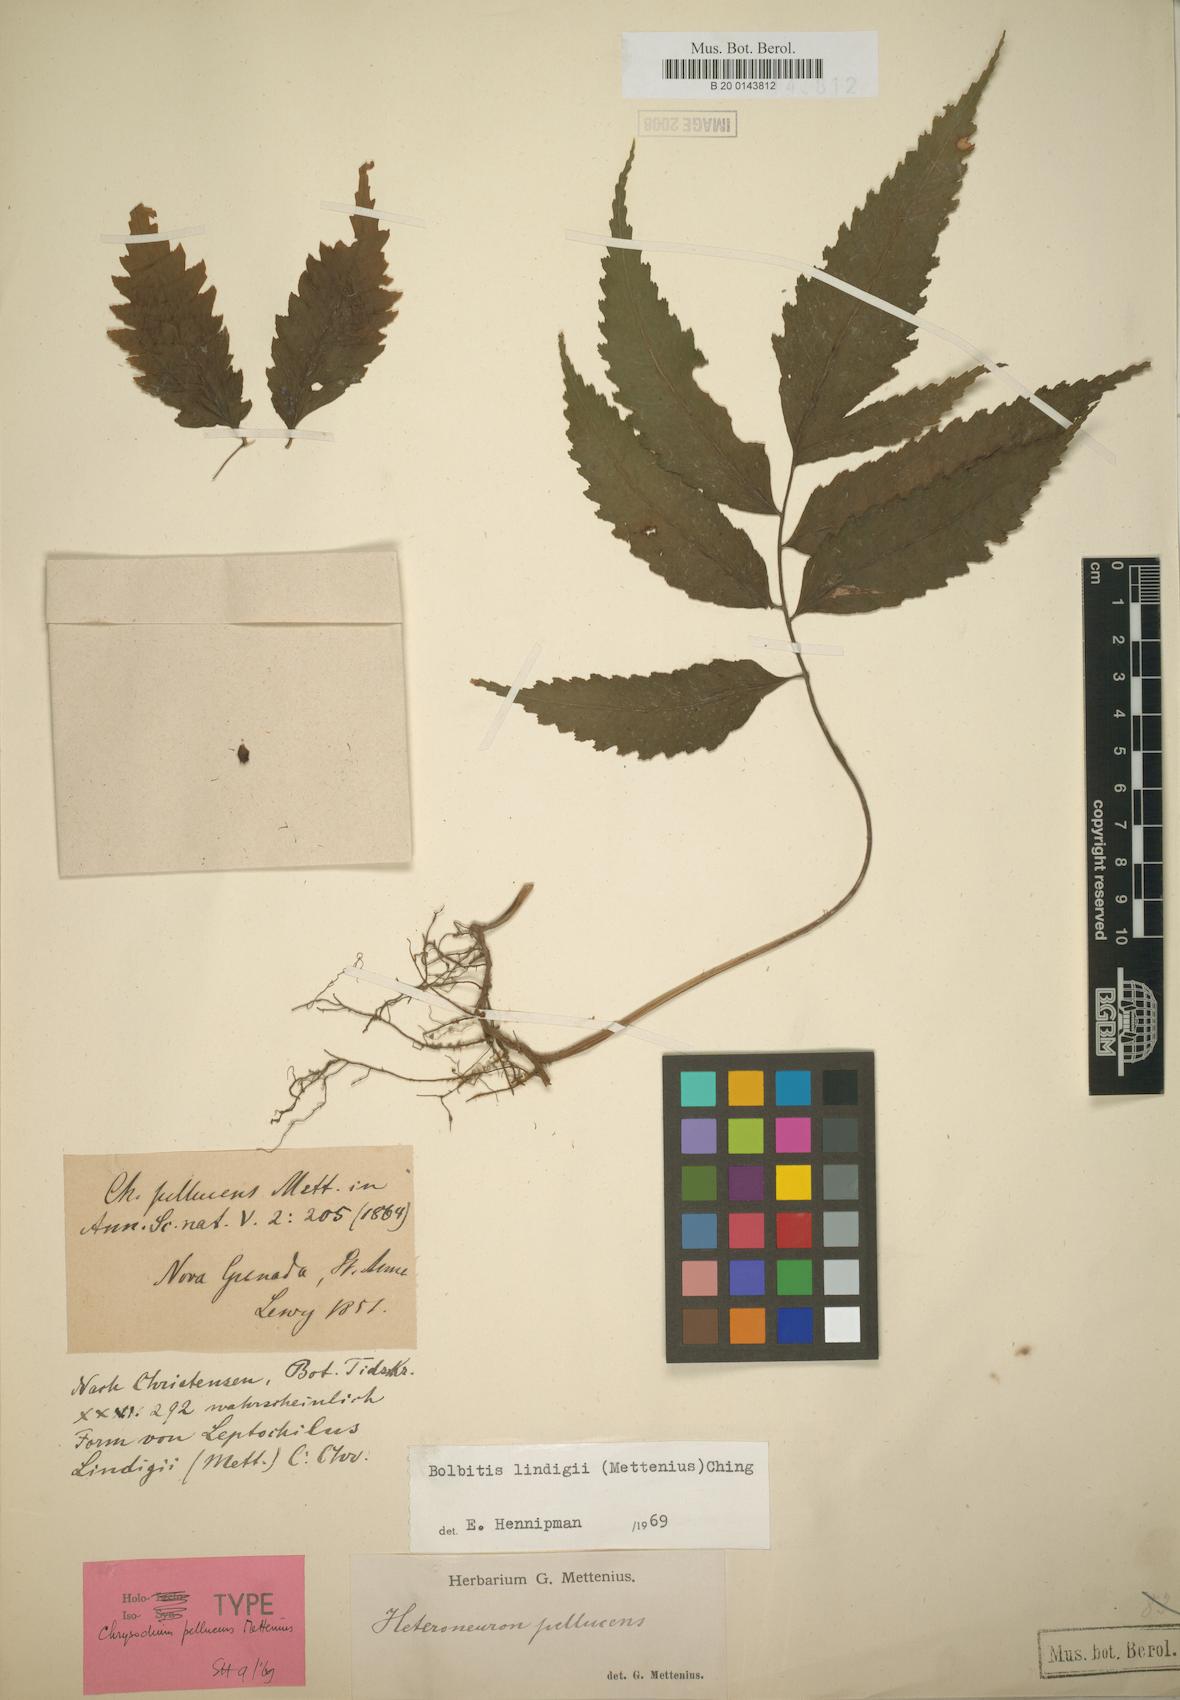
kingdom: Plantae
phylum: Tracheophyta
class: Polypodiopsida
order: Polypodiales
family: Dryopteridaceae
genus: Mickelia
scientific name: Mickelia lindigii
